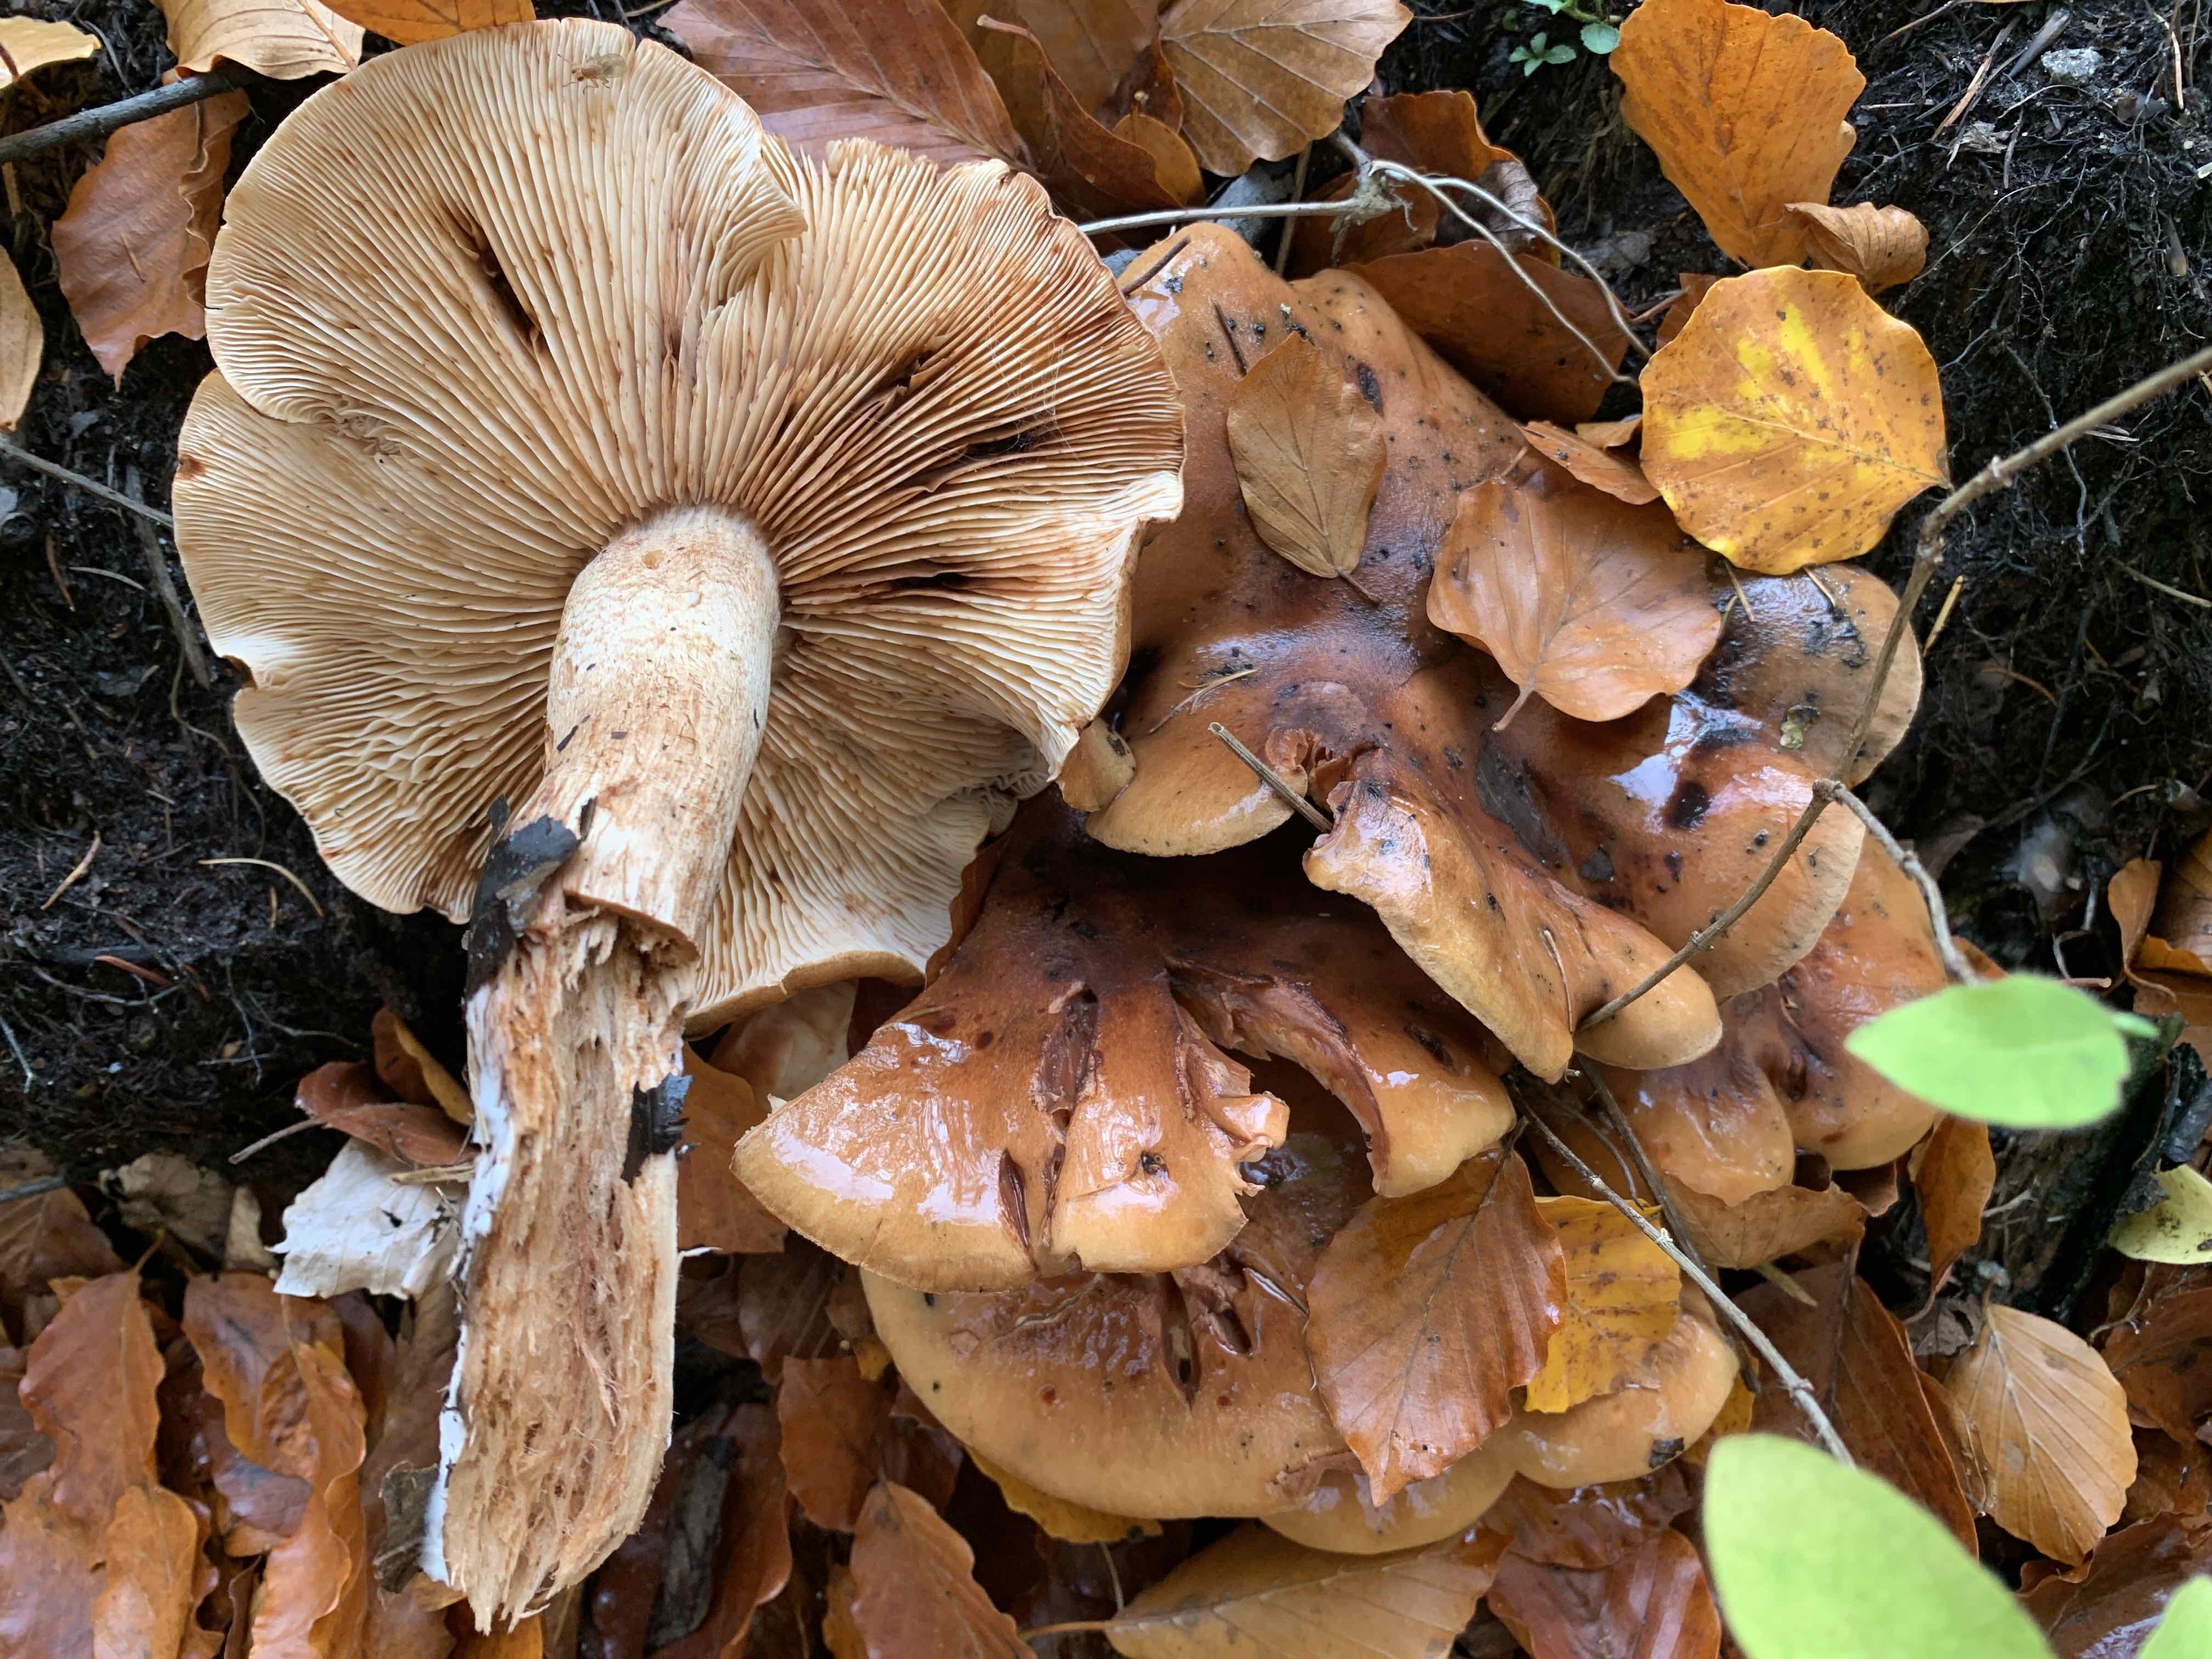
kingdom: Fungi
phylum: Basidiomycota
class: Agaricomycetes
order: Agaricales
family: Tricholomataceae
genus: Tricholoma
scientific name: Tricholoma ustale
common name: sveden ridderhat
